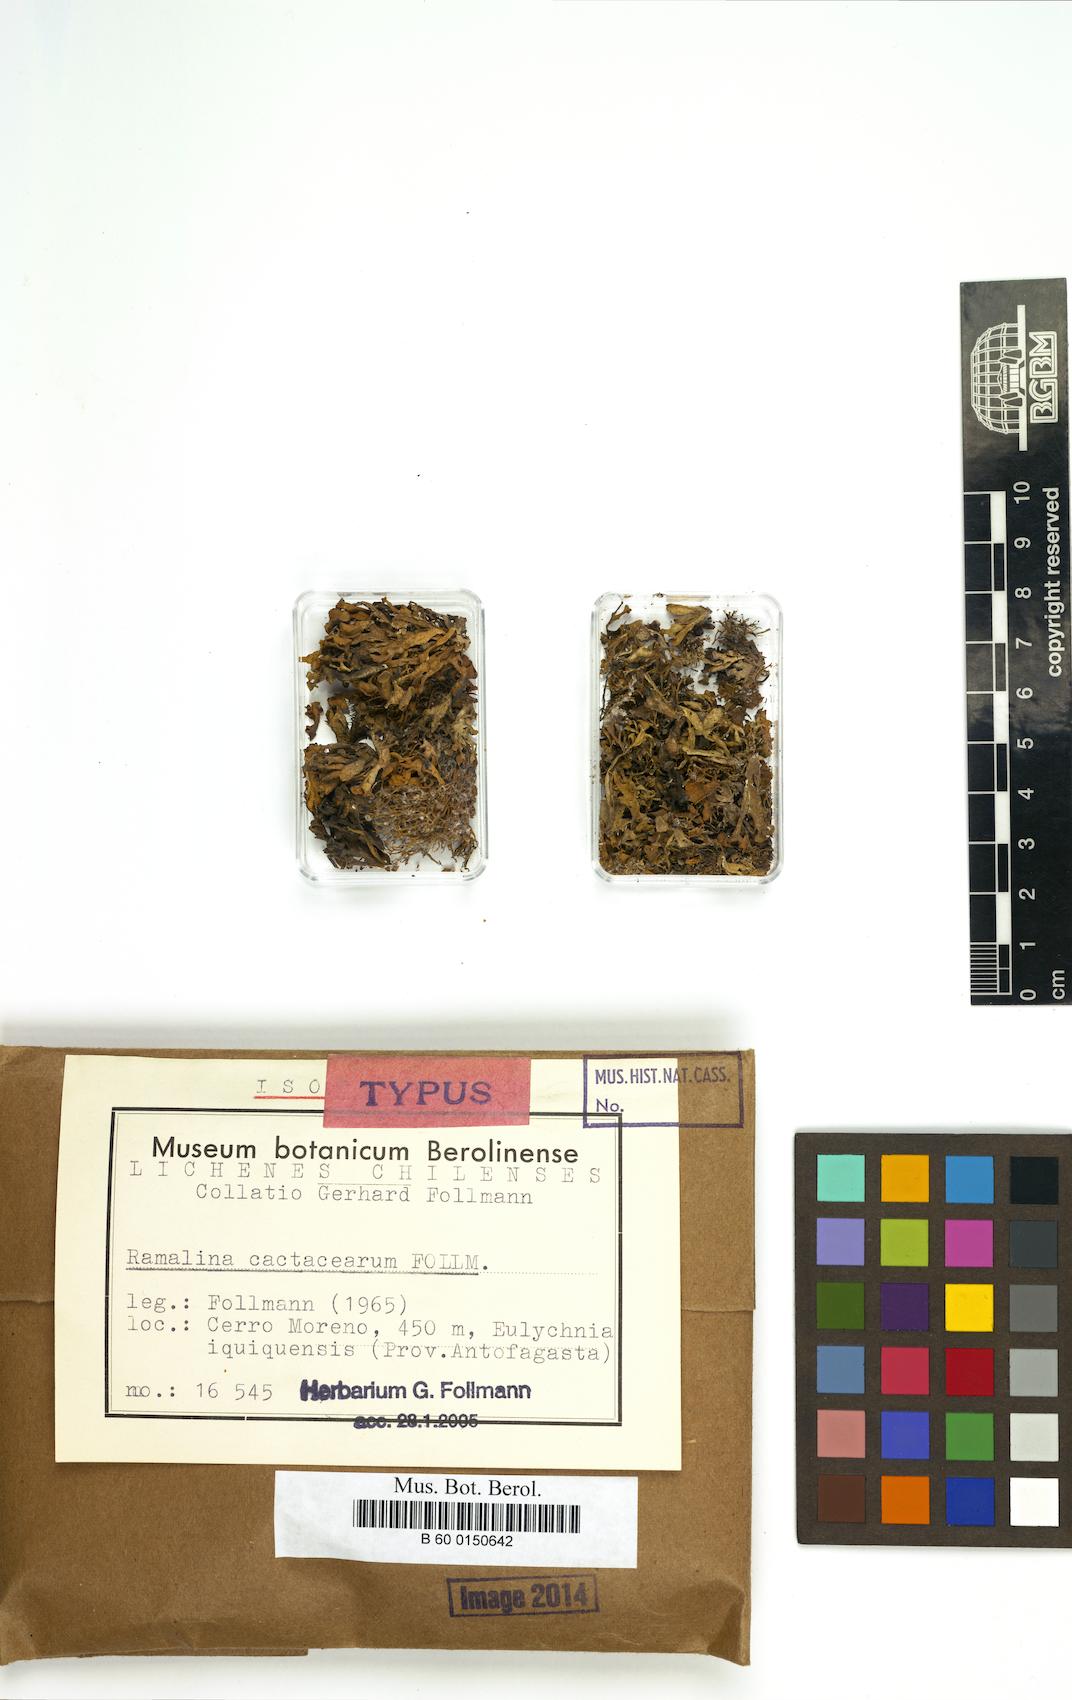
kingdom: Fungi
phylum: Ascomycota
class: Lecanoromycetes
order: Lecanorales
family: Ramalinaceae
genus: Ramalina
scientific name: Ramalina cactacearum
